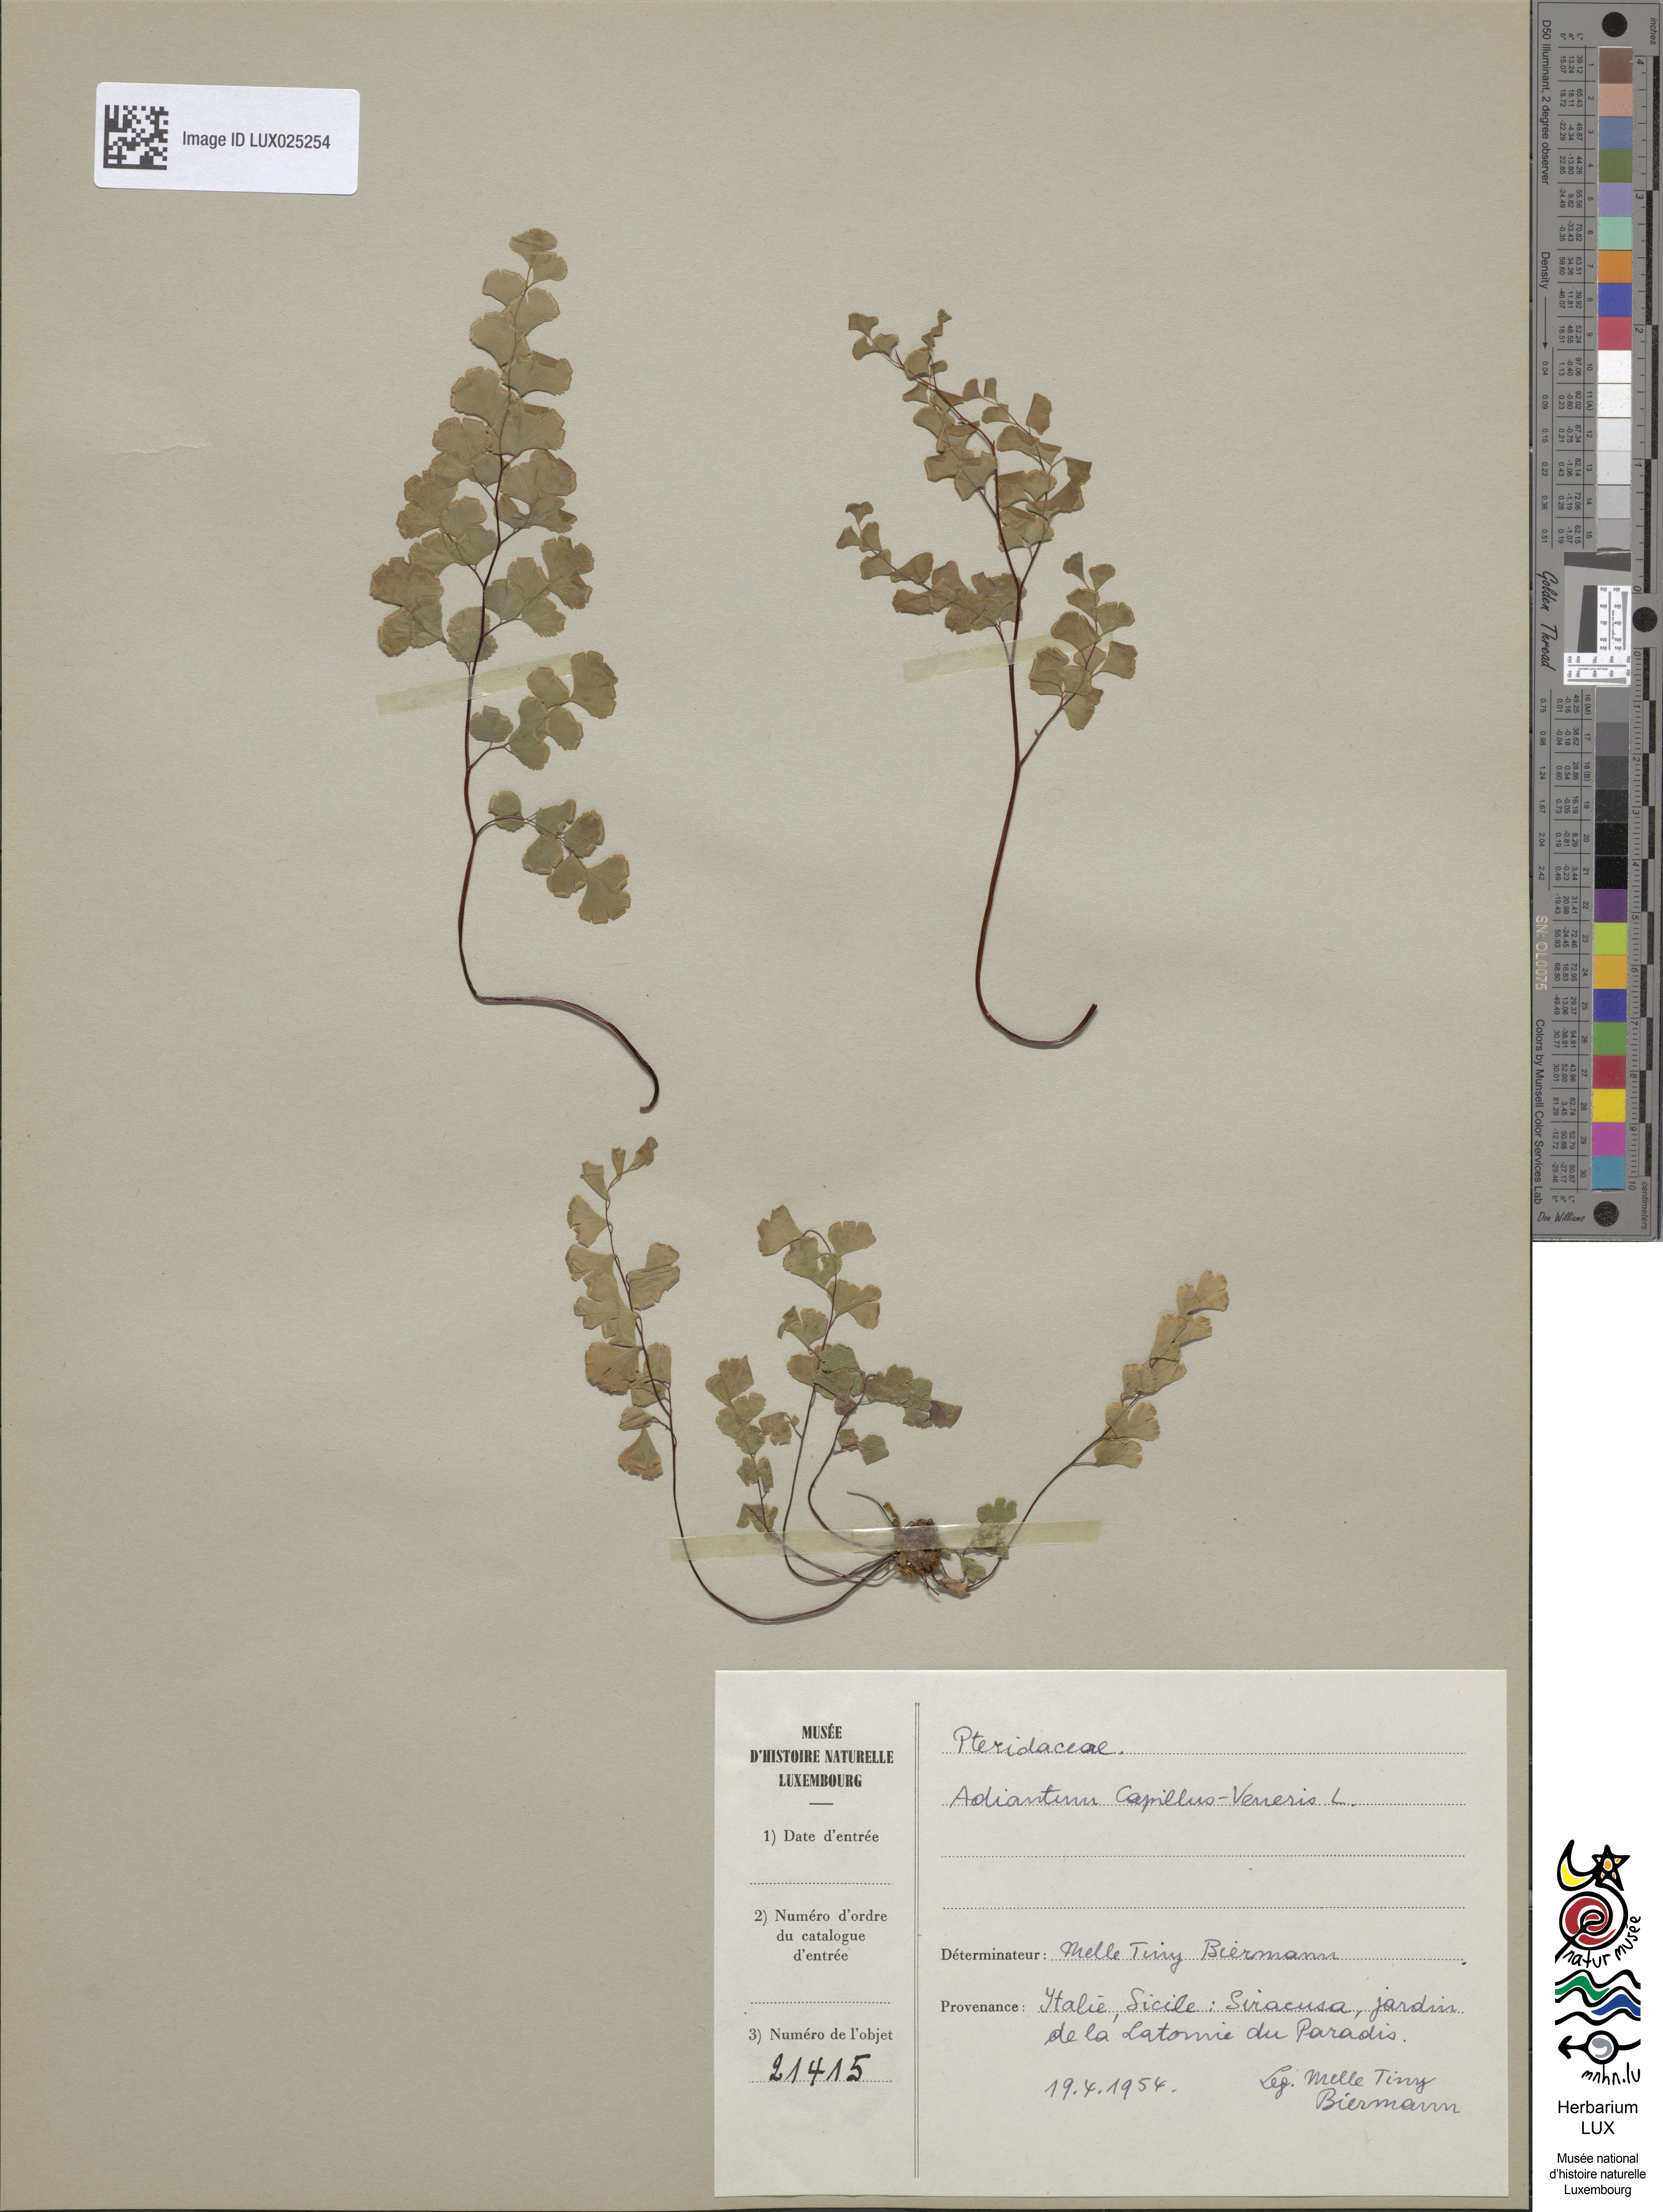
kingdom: Plantae
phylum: Tracheophyta
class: Polypodiopsida
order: Polypodiales
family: Pteridaceae
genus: Adiantum
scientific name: Adiantum capillus-veneris
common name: Maidenhair fern
